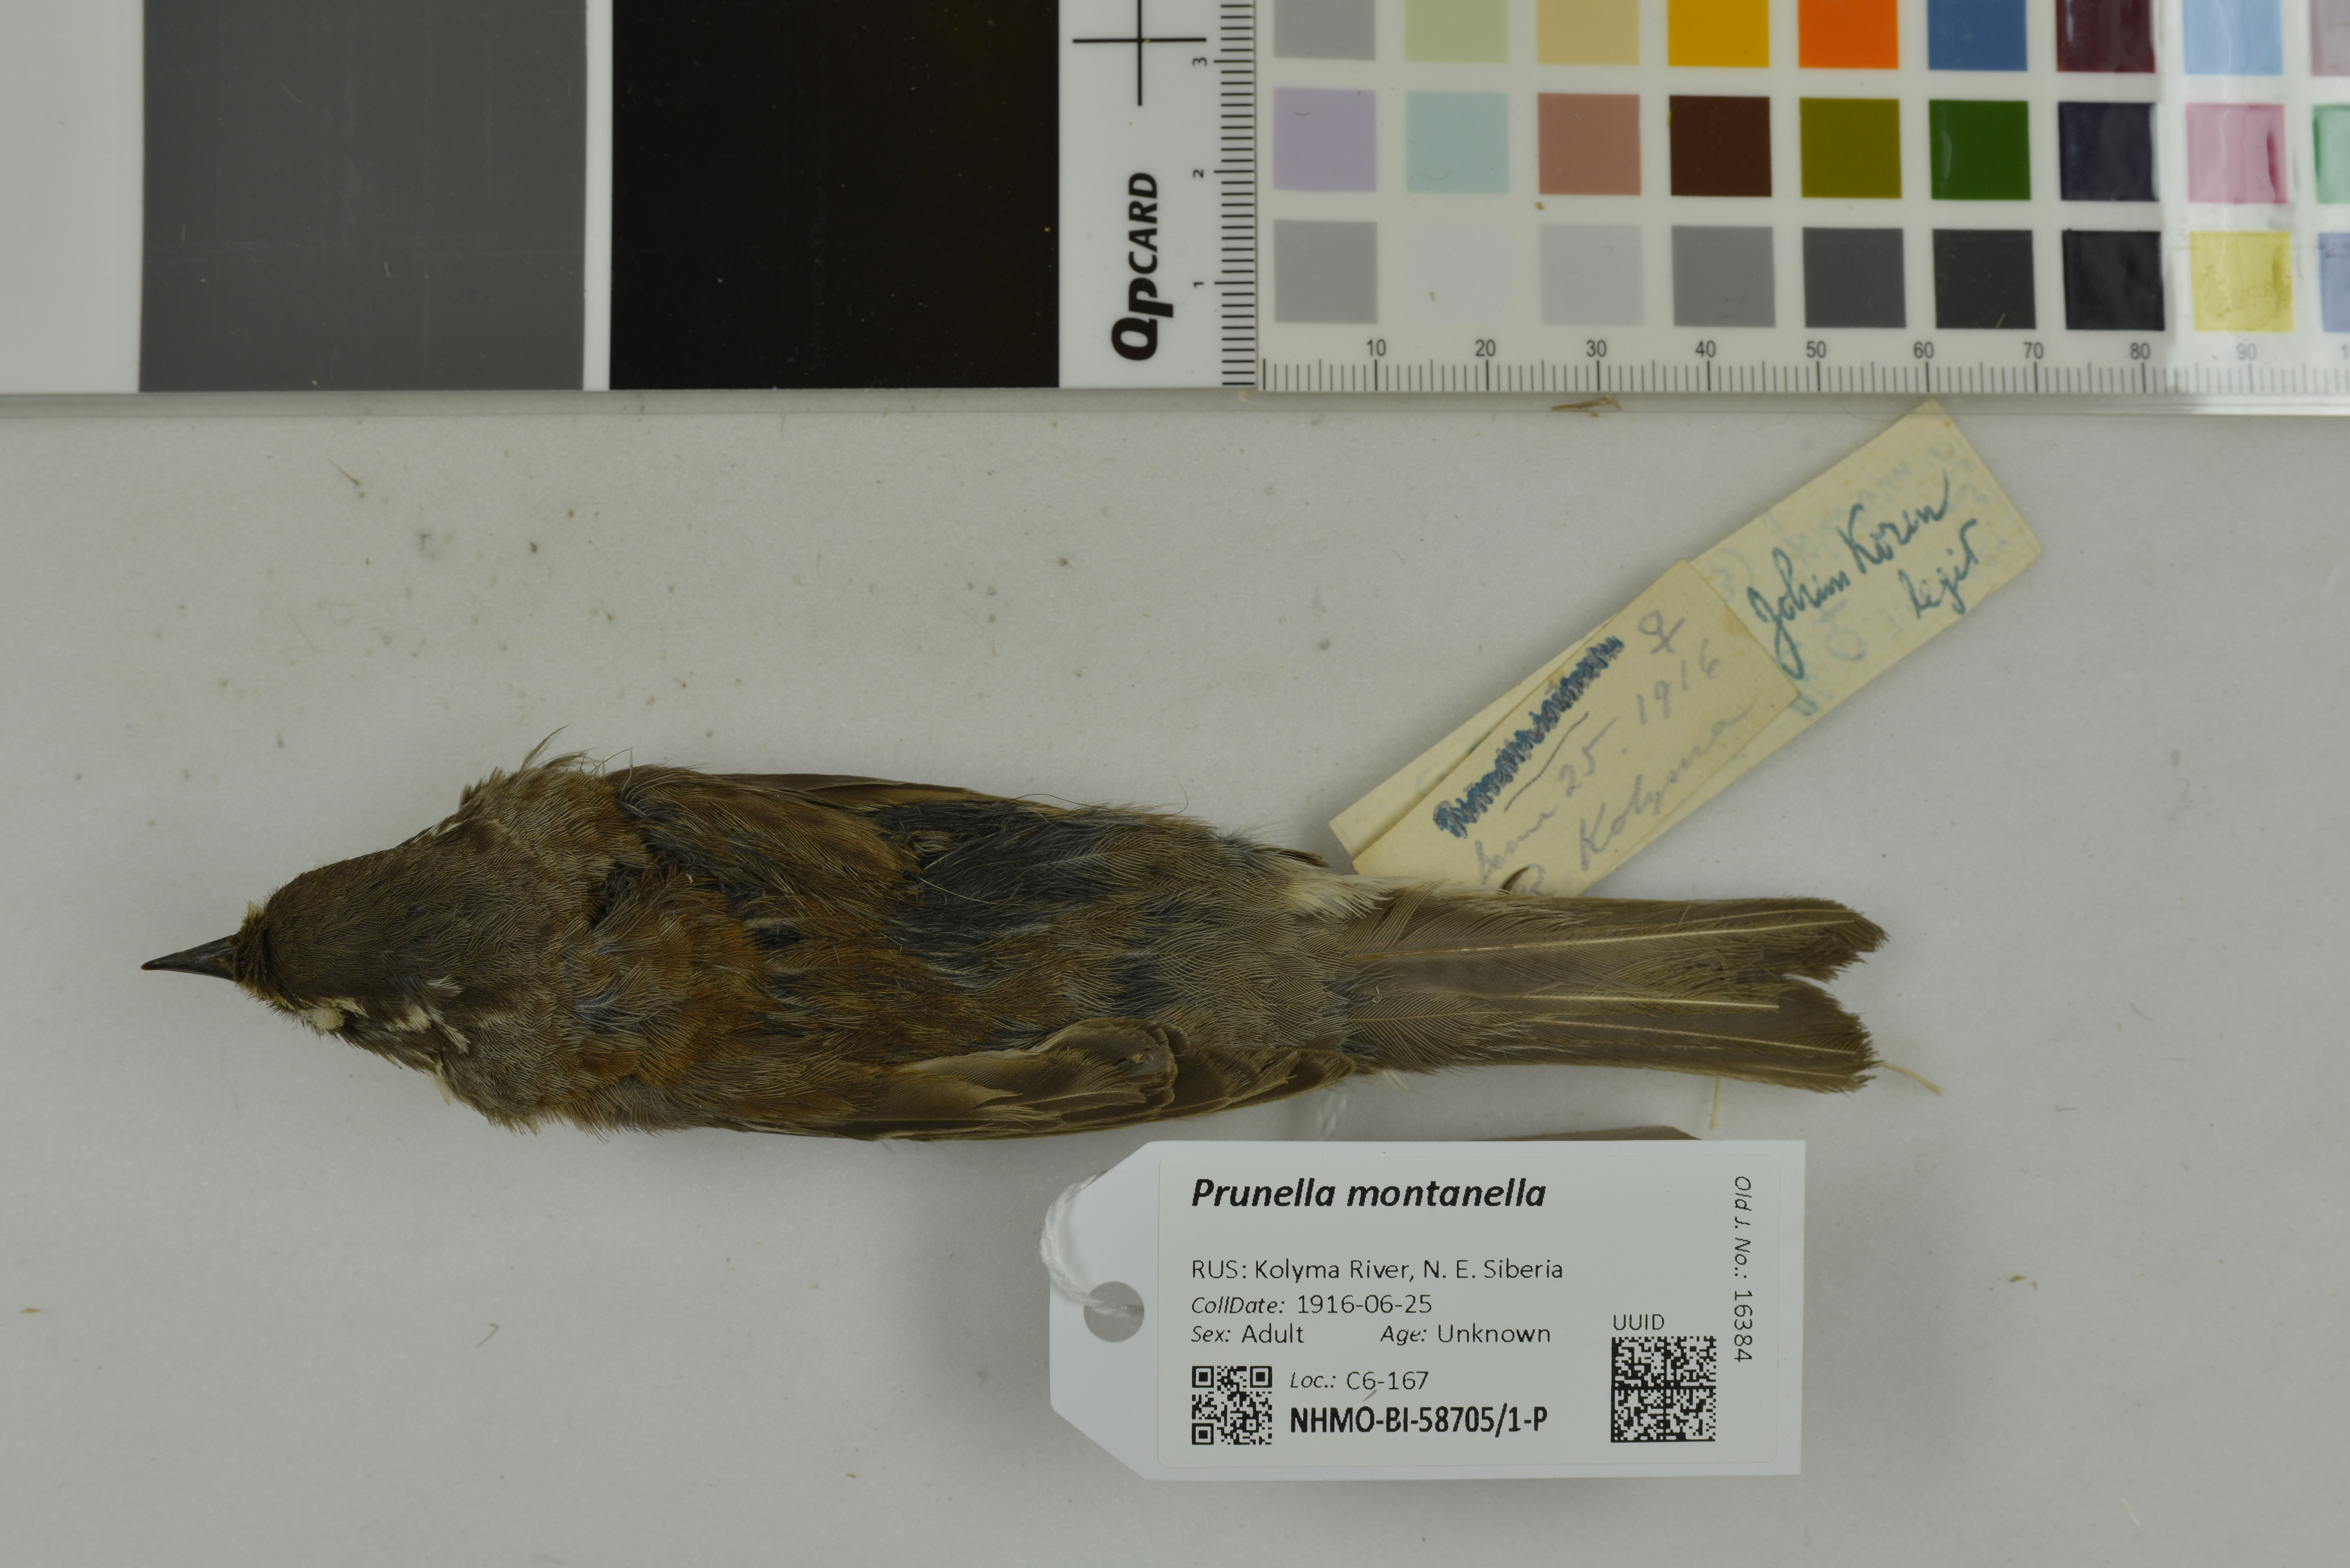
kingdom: Animalia
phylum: Chordata
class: Aves
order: Passeriformes
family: Prunellidae
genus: Prunella
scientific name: Prunella montanella
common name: Siberian accentor
